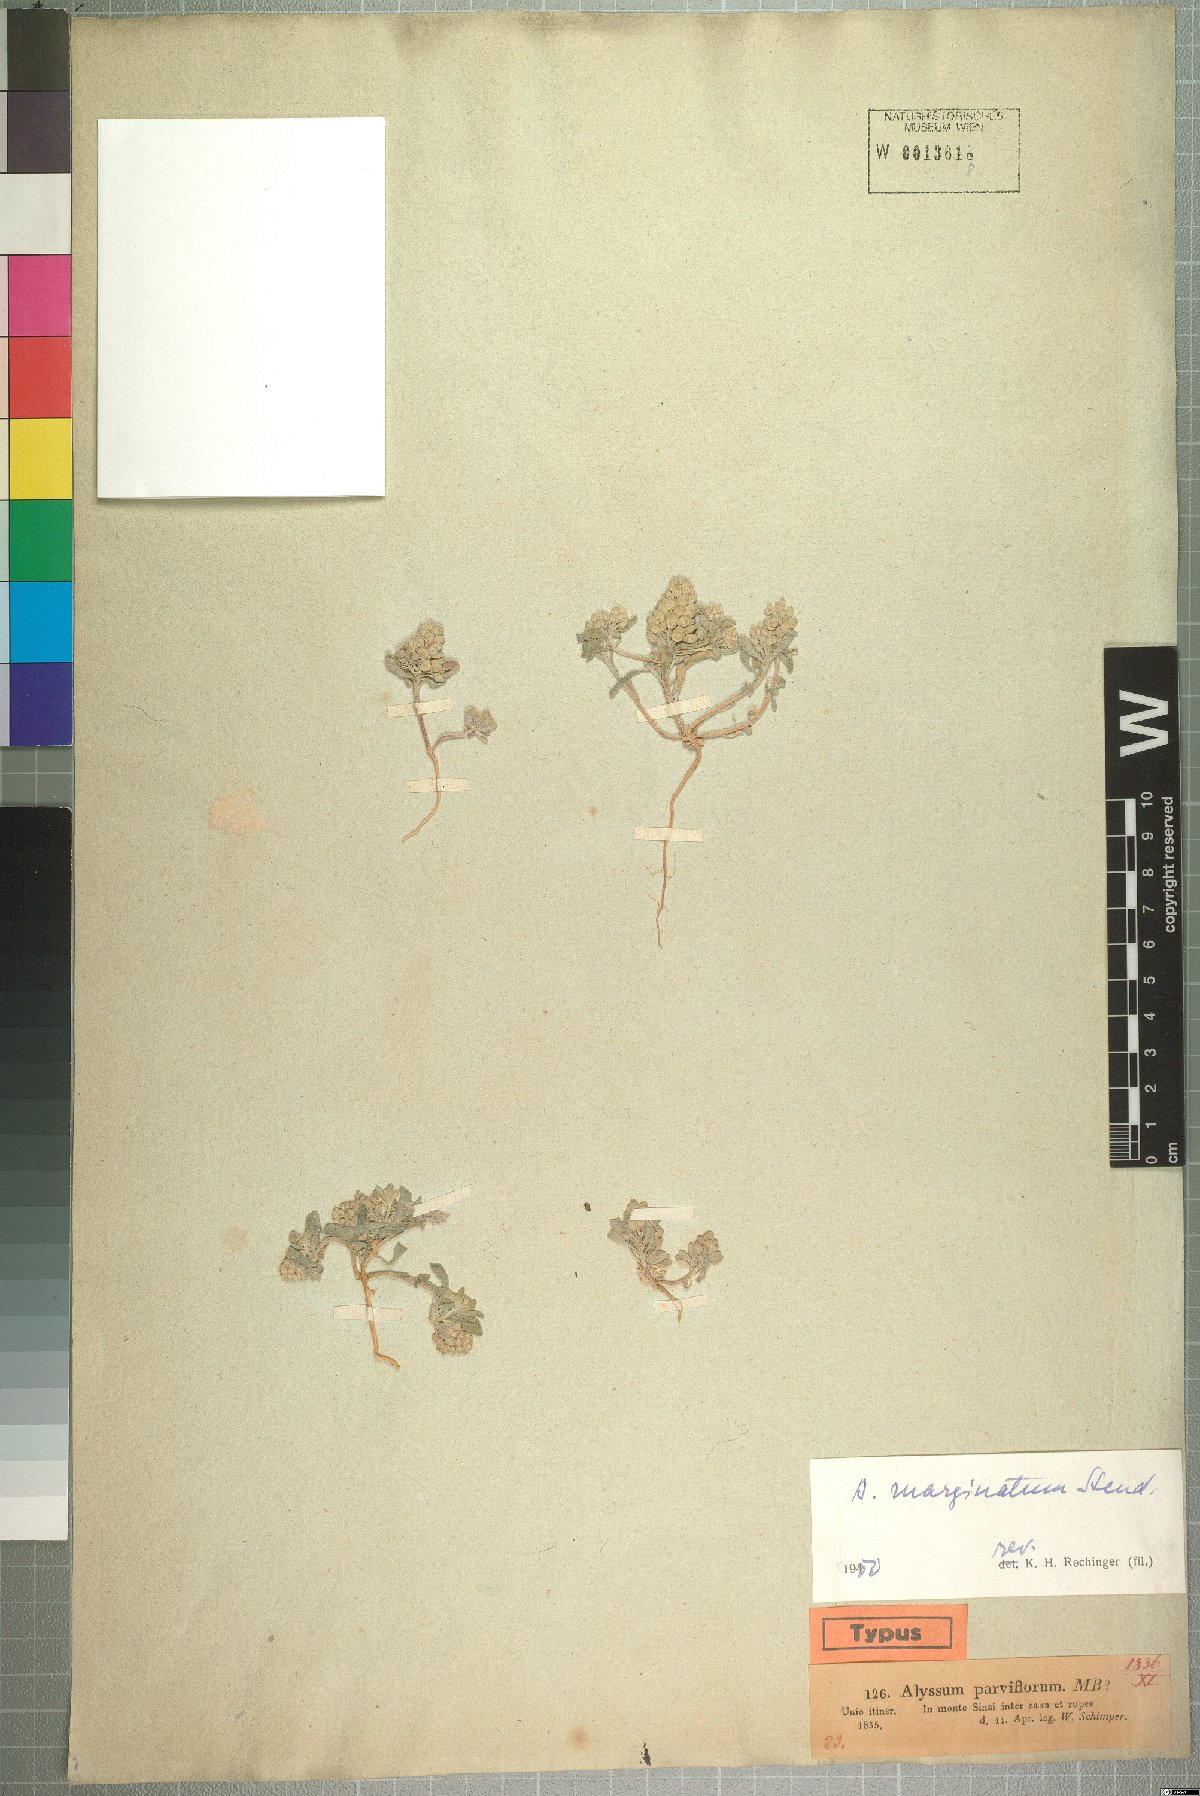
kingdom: Plantae
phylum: Tracheophyta
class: Magnoliopsida
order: Brassicales
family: Brassicaceae
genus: Alyssum
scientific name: Alyssum szovitsianum
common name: Szowits' madwort
